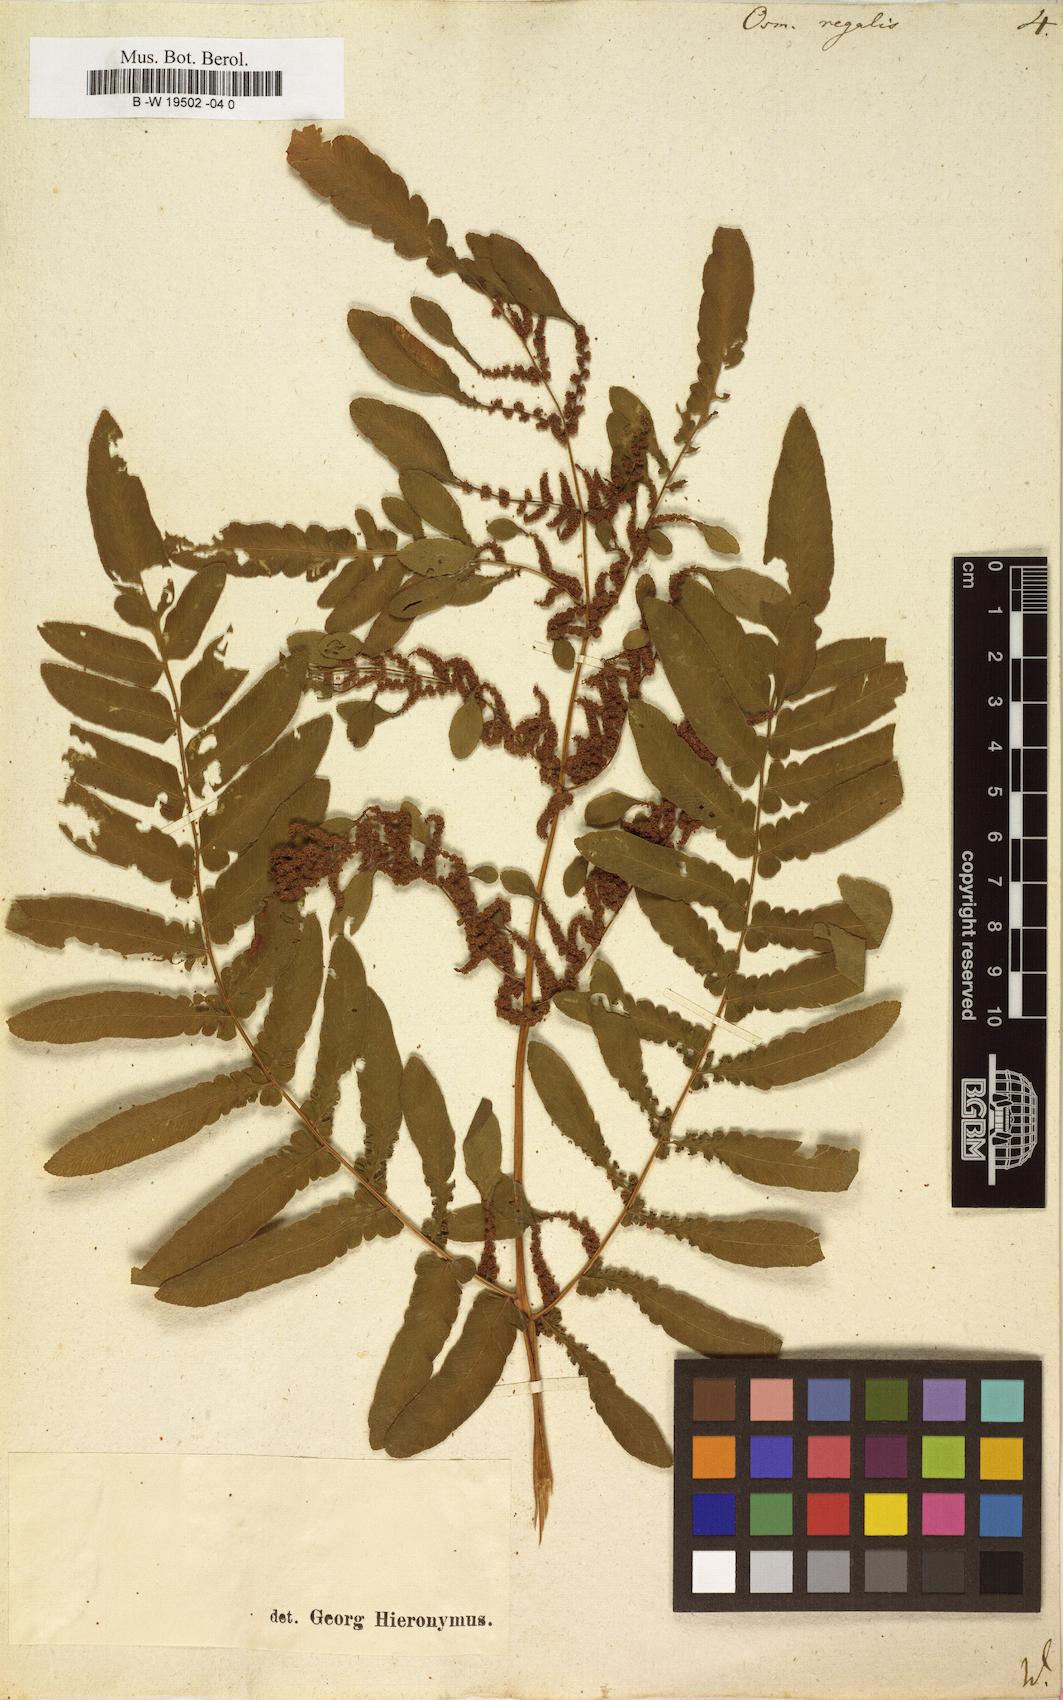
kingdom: Plantae
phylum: Tracheophyta
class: Polypodiopsida
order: Osmundales
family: Osmundaceae
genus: Osmunda
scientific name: Osmunda regalis
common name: Royal fern
